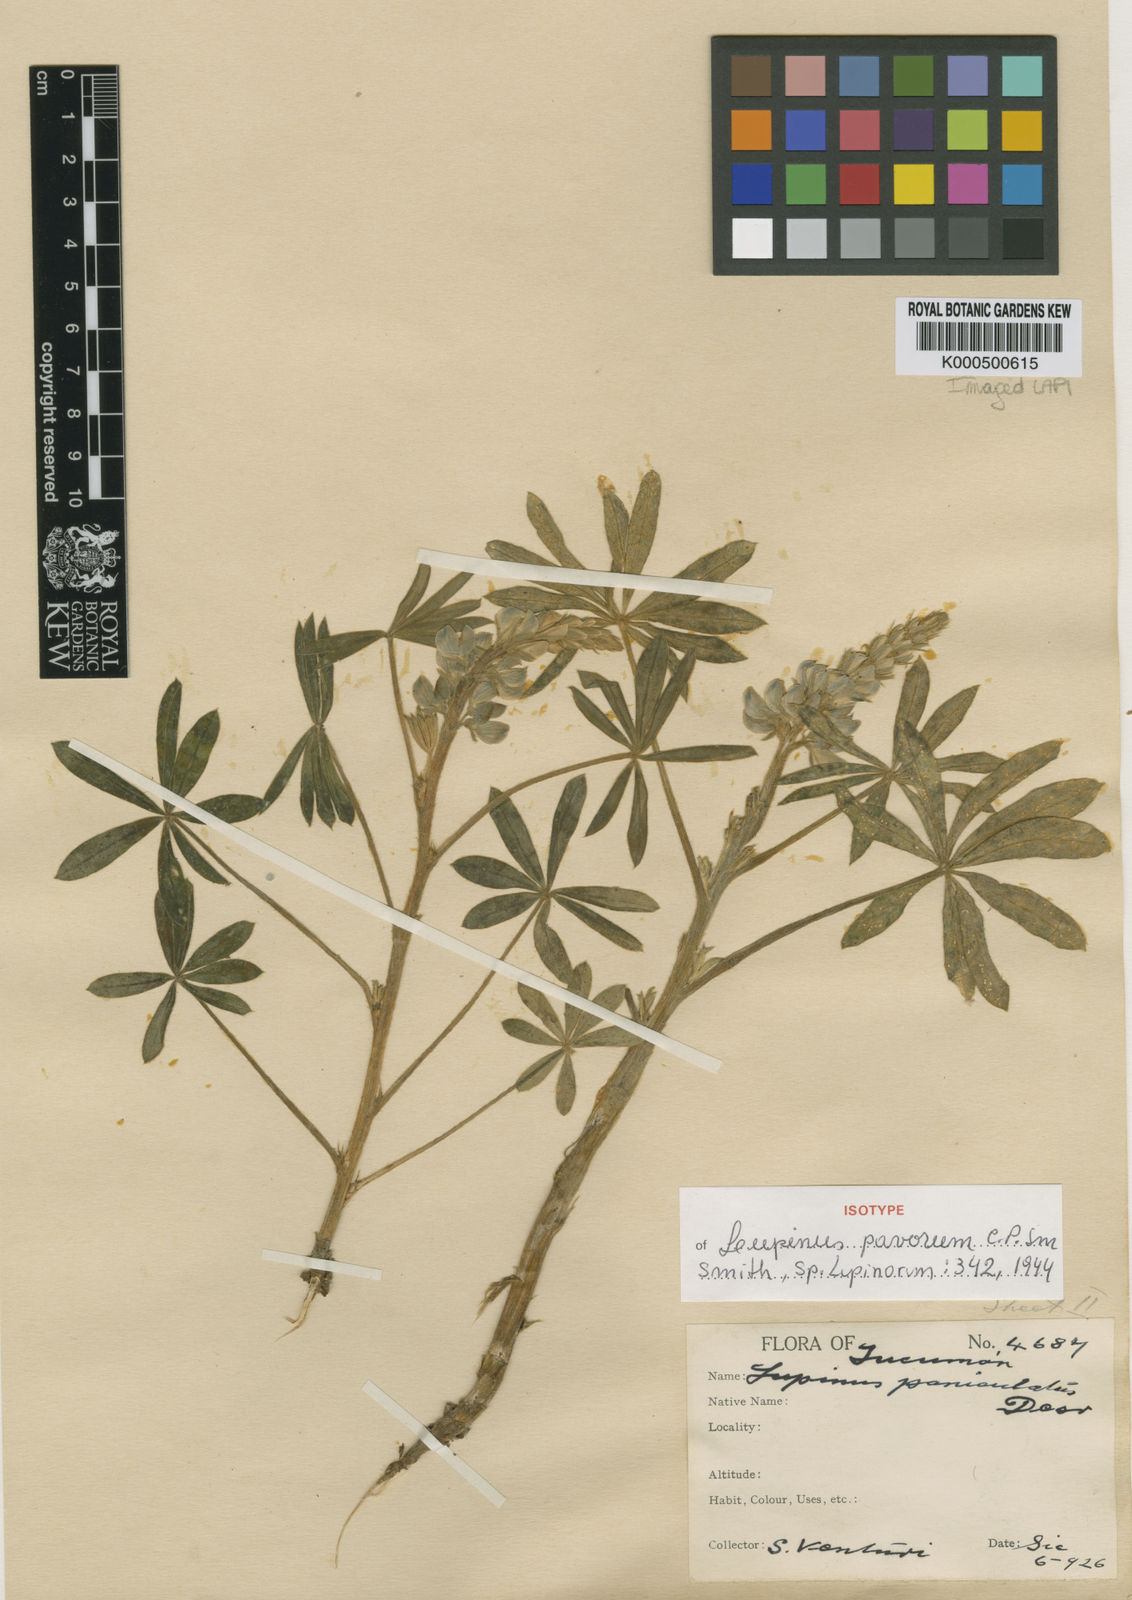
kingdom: Plantae
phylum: Tracheophyta
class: Magnoliopsida
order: Fabales
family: Fabaceae
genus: Lupinus
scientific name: Lupinus burkartianus
